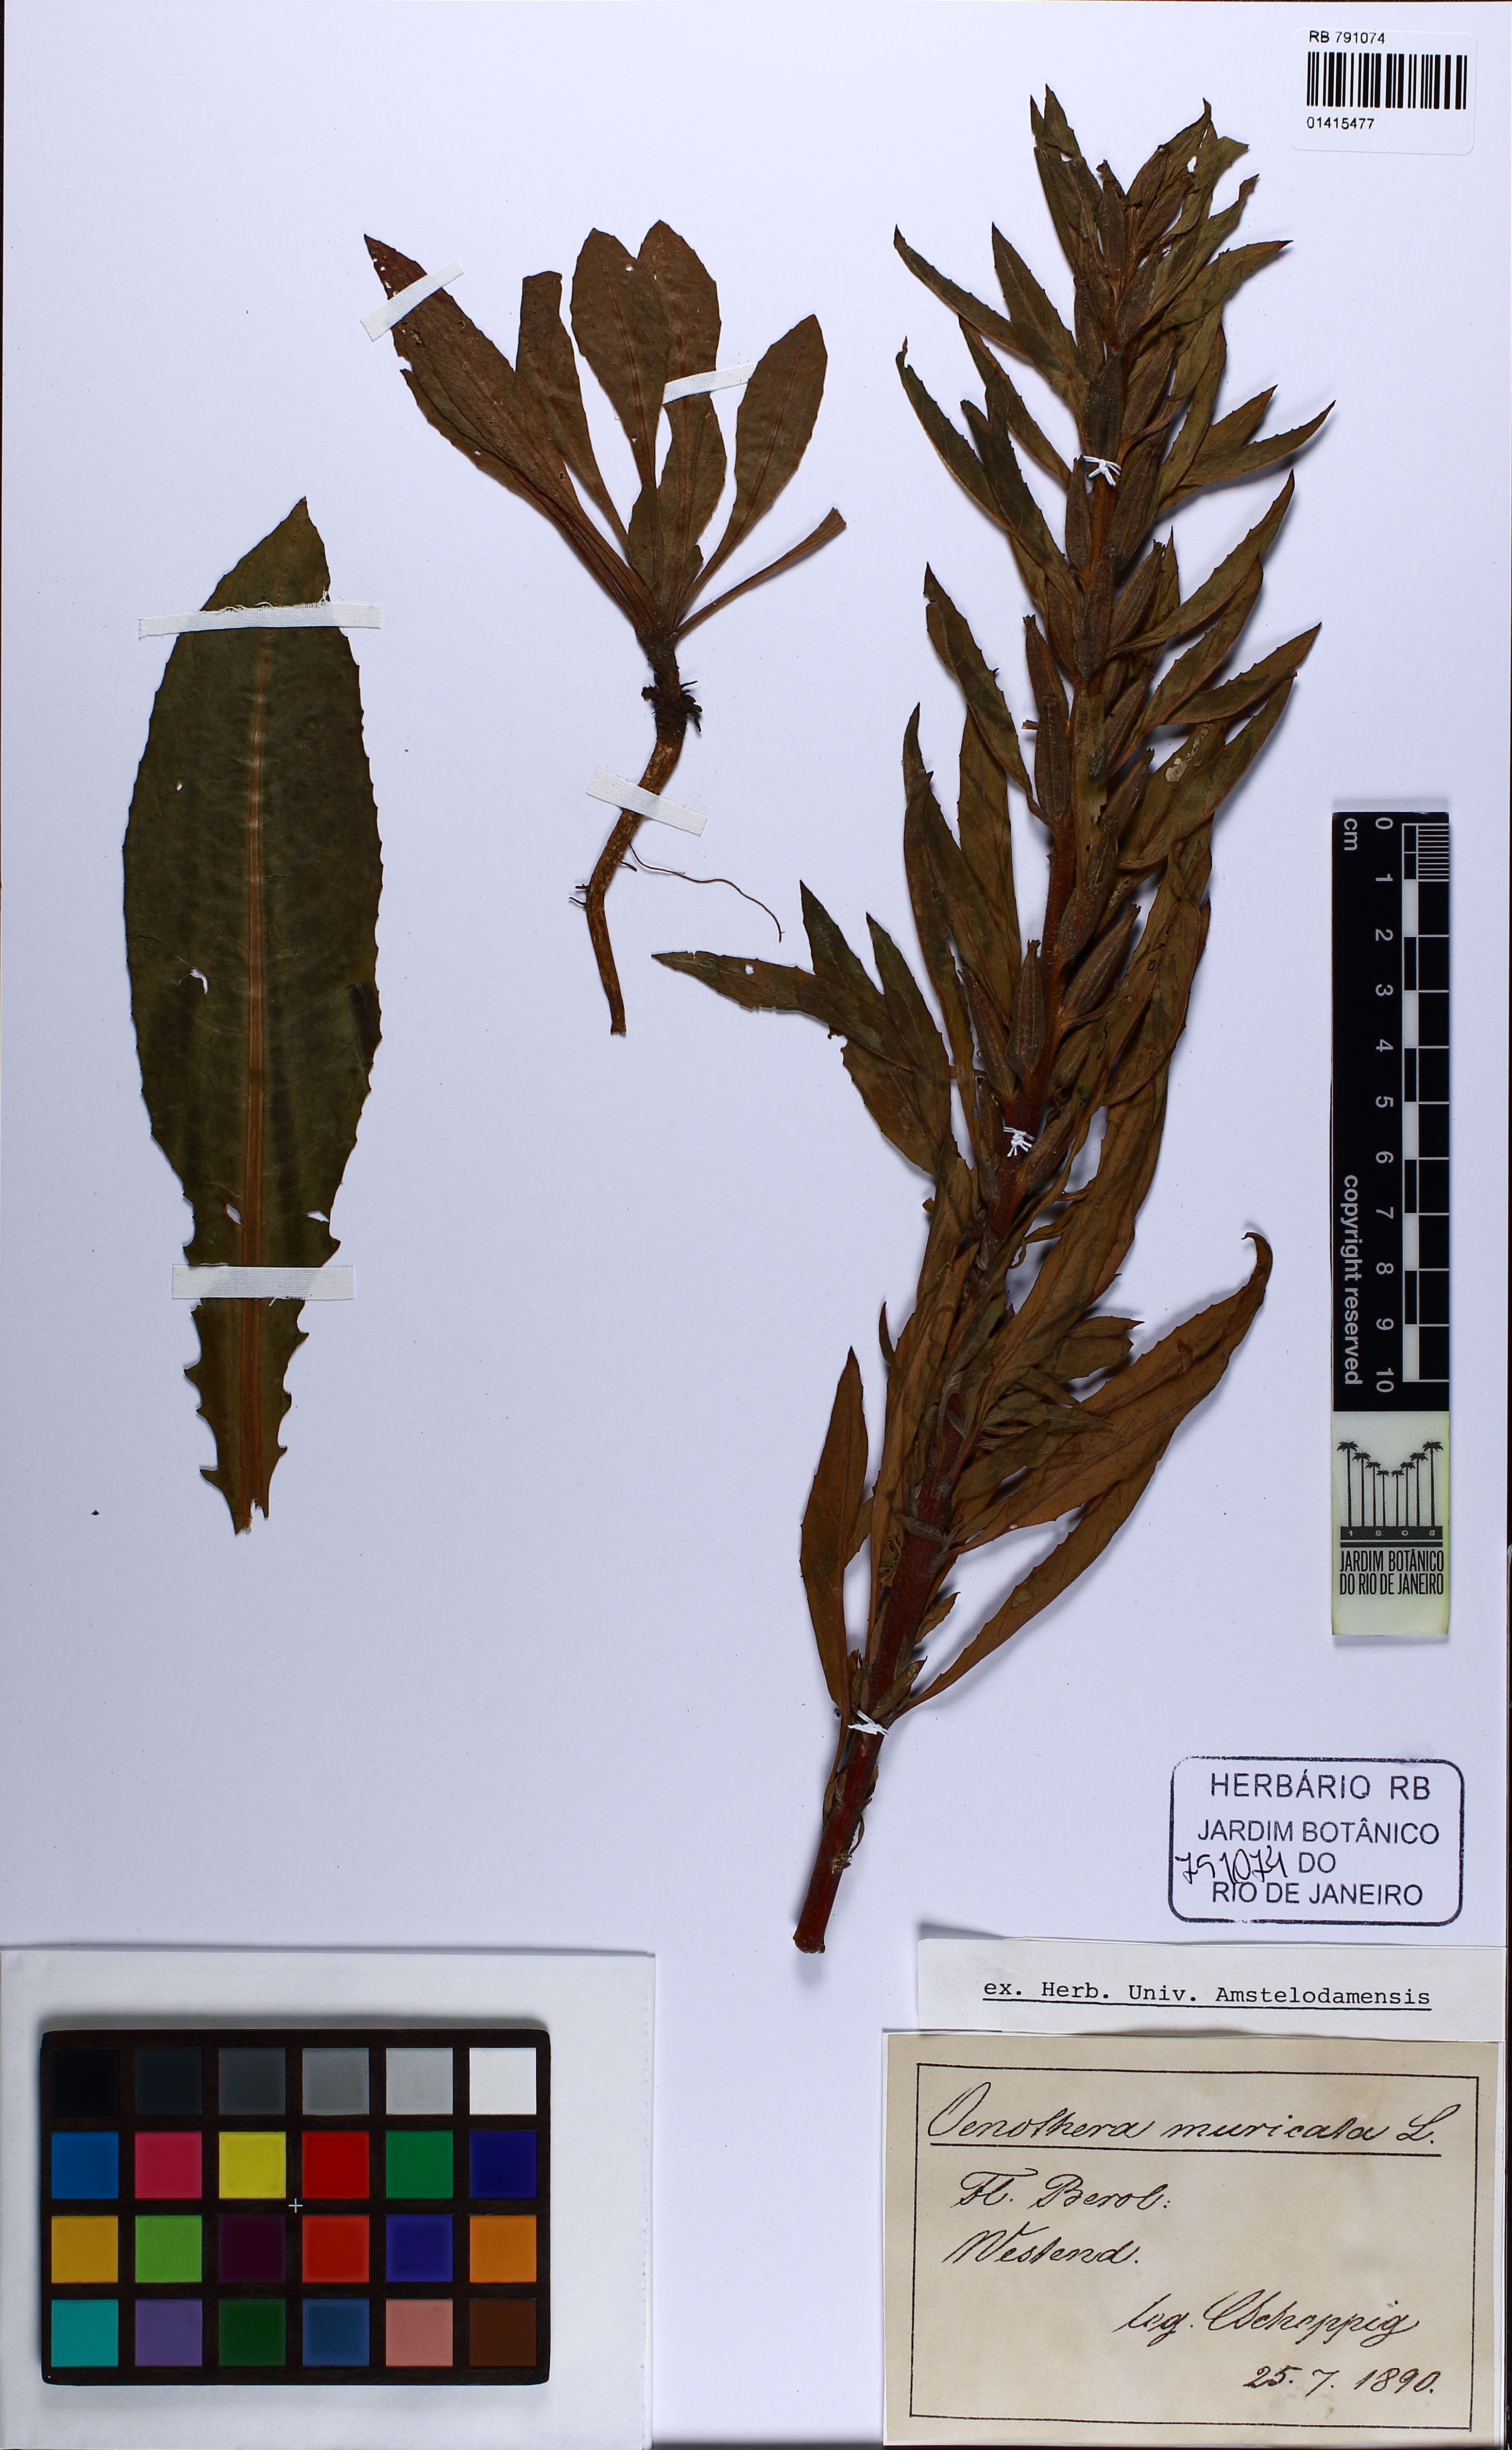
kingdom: Plantae
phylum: Tracheophyta
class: Magnoliopsida
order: Myrtales
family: Onagraceae
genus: Oenothera
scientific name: Oenothera biennis
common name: Common evening-primrose
